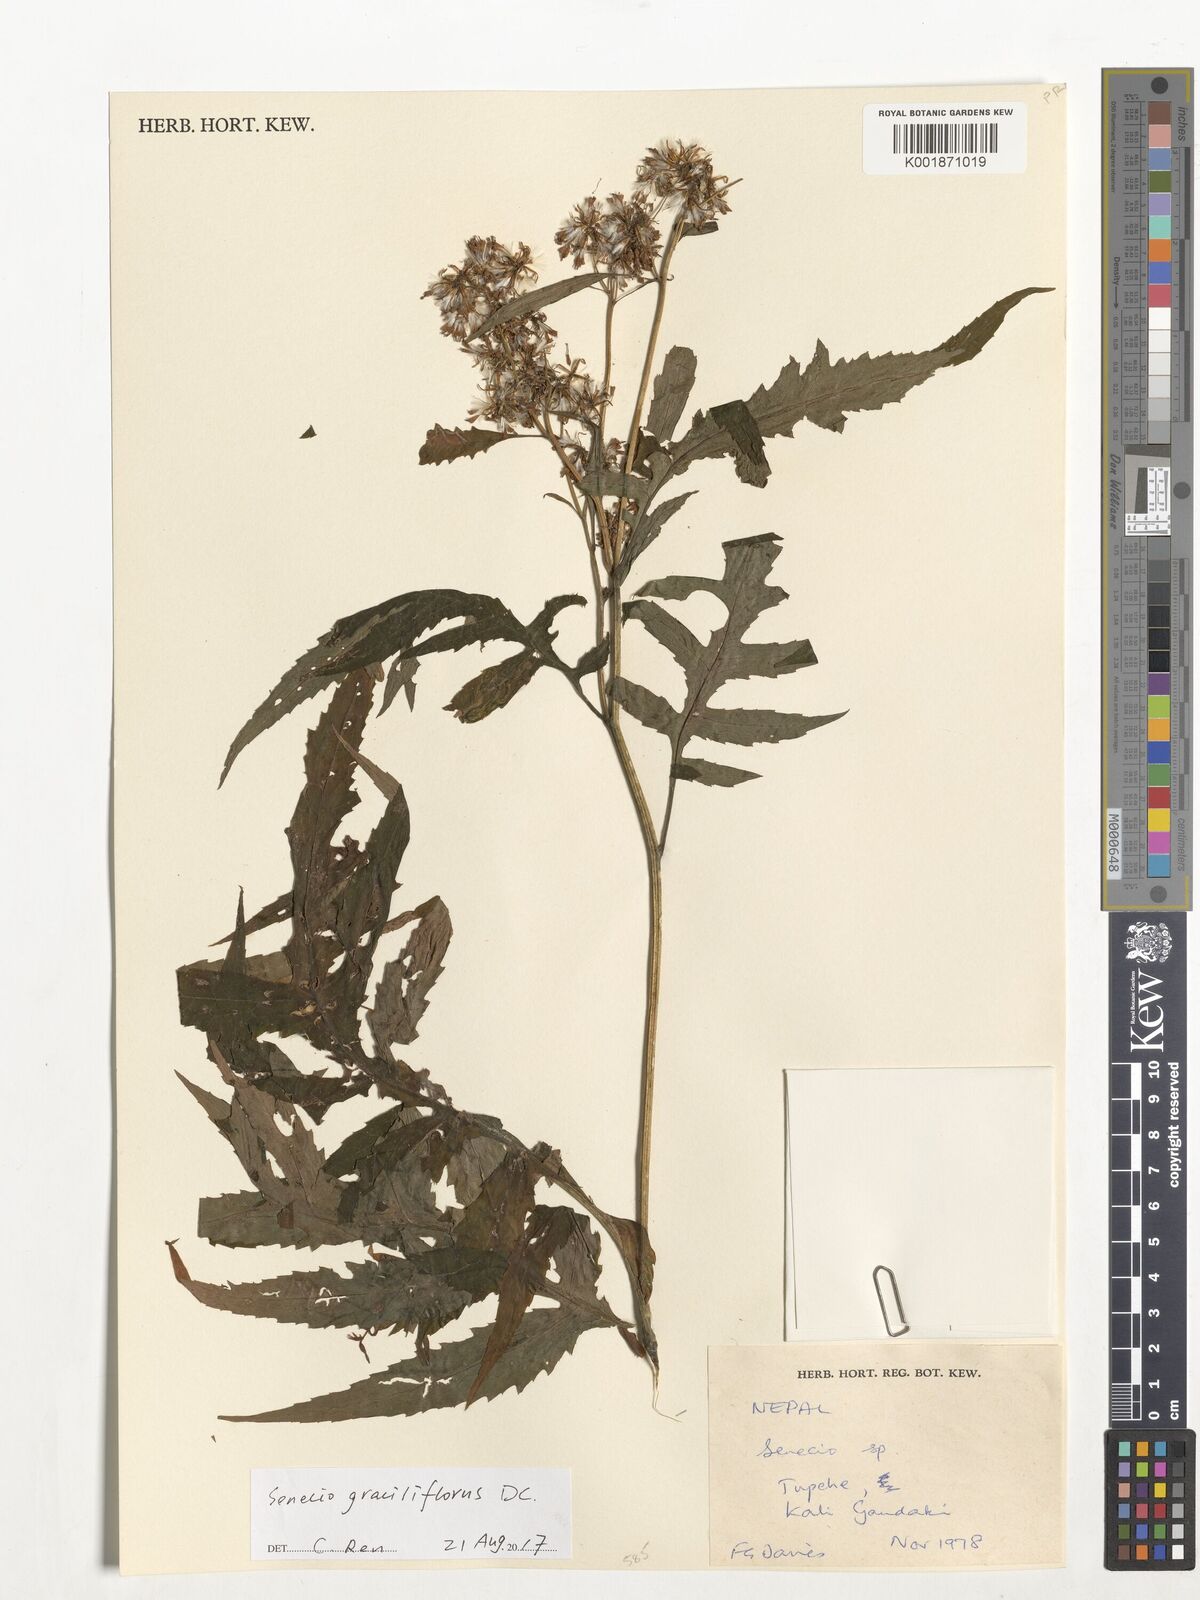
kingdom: Plantae
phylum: Tracheophyta
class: Magnoliopsida
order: Asterales
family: Asteraceae
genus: Jacobaea
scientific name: Jacobaea graciliflora
